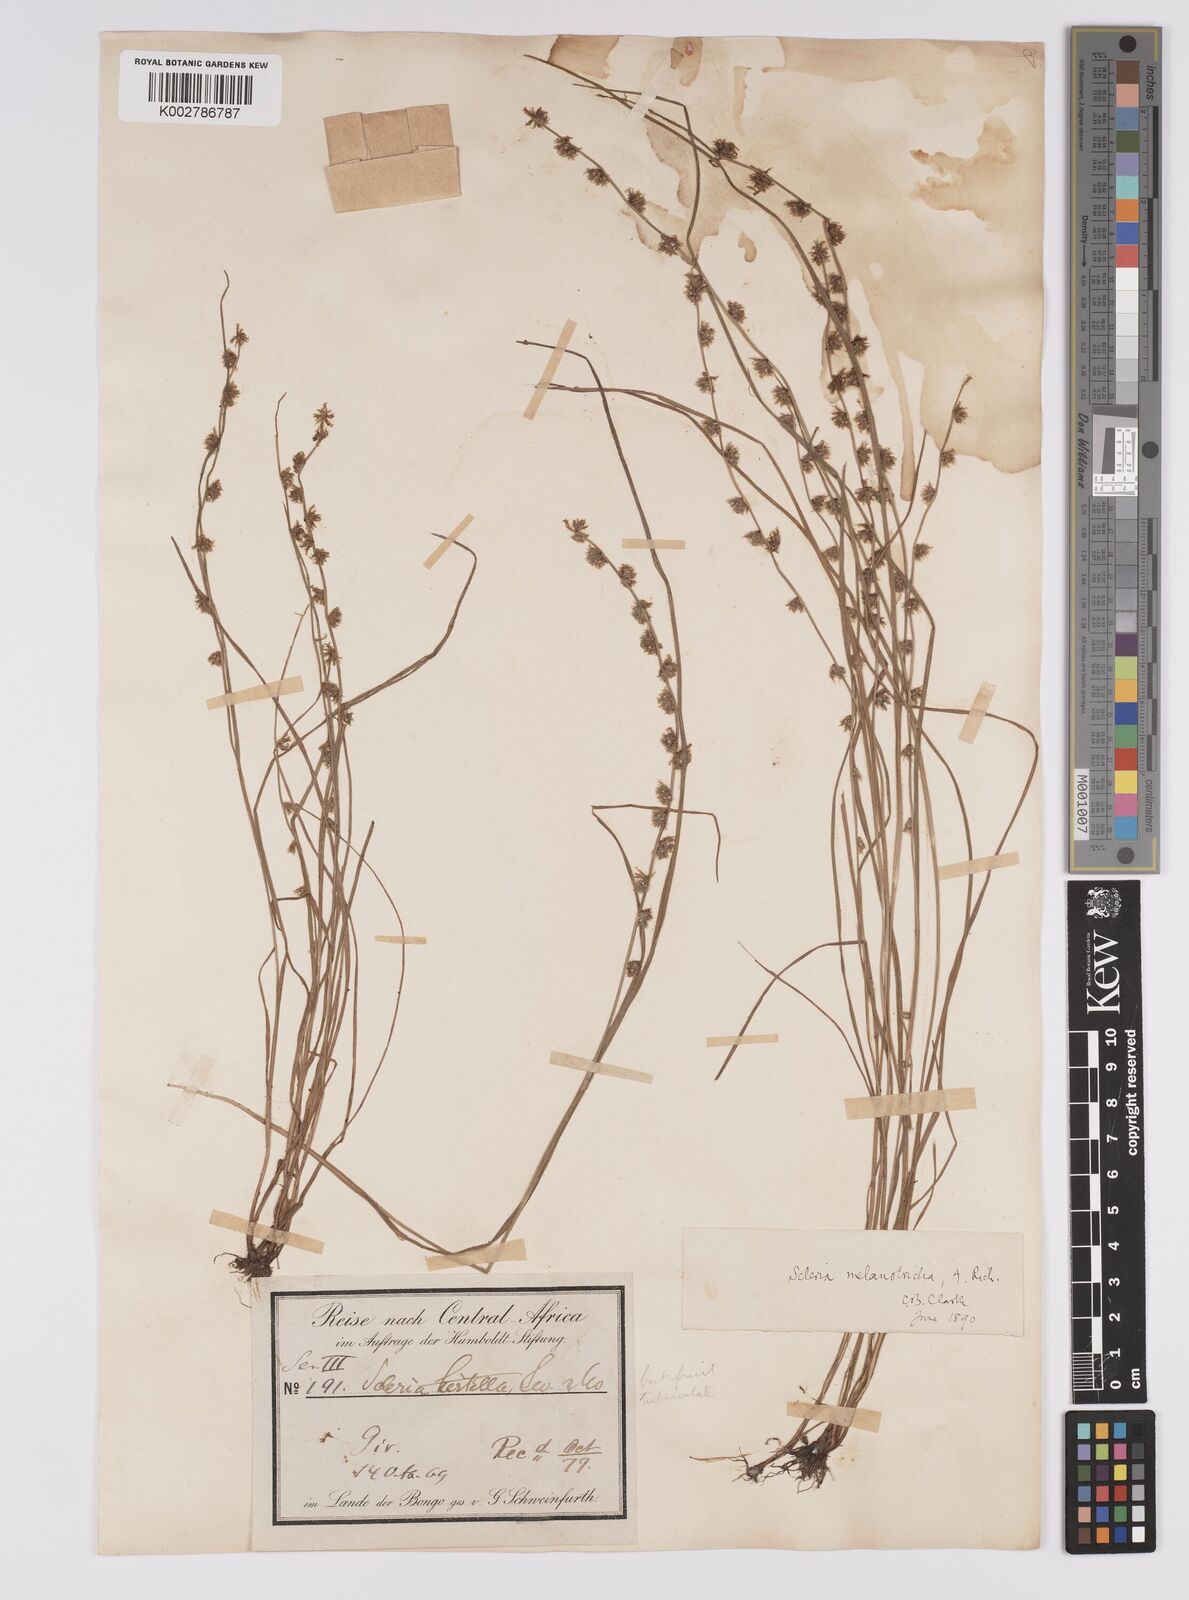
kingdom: Plantae
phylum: Tracheophyta
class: Liliopsida
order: Poales
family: Cyperaceae
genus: Scleria
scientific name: Scleria melanotricha
